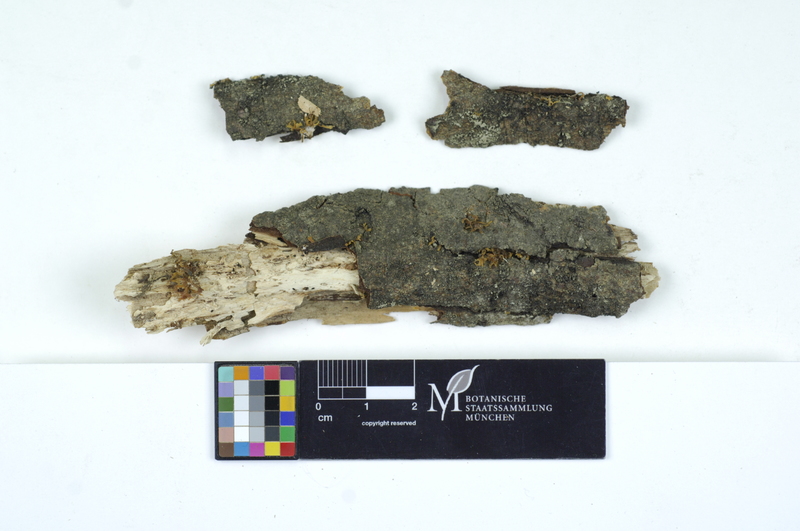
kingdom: Fungi
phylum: Basidiomycota
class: Dacrymycetes
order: Dacrymycetales
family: Dacrymycetaceae
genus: Calocera
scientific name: Calocera cornea
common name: Small stagshorn
